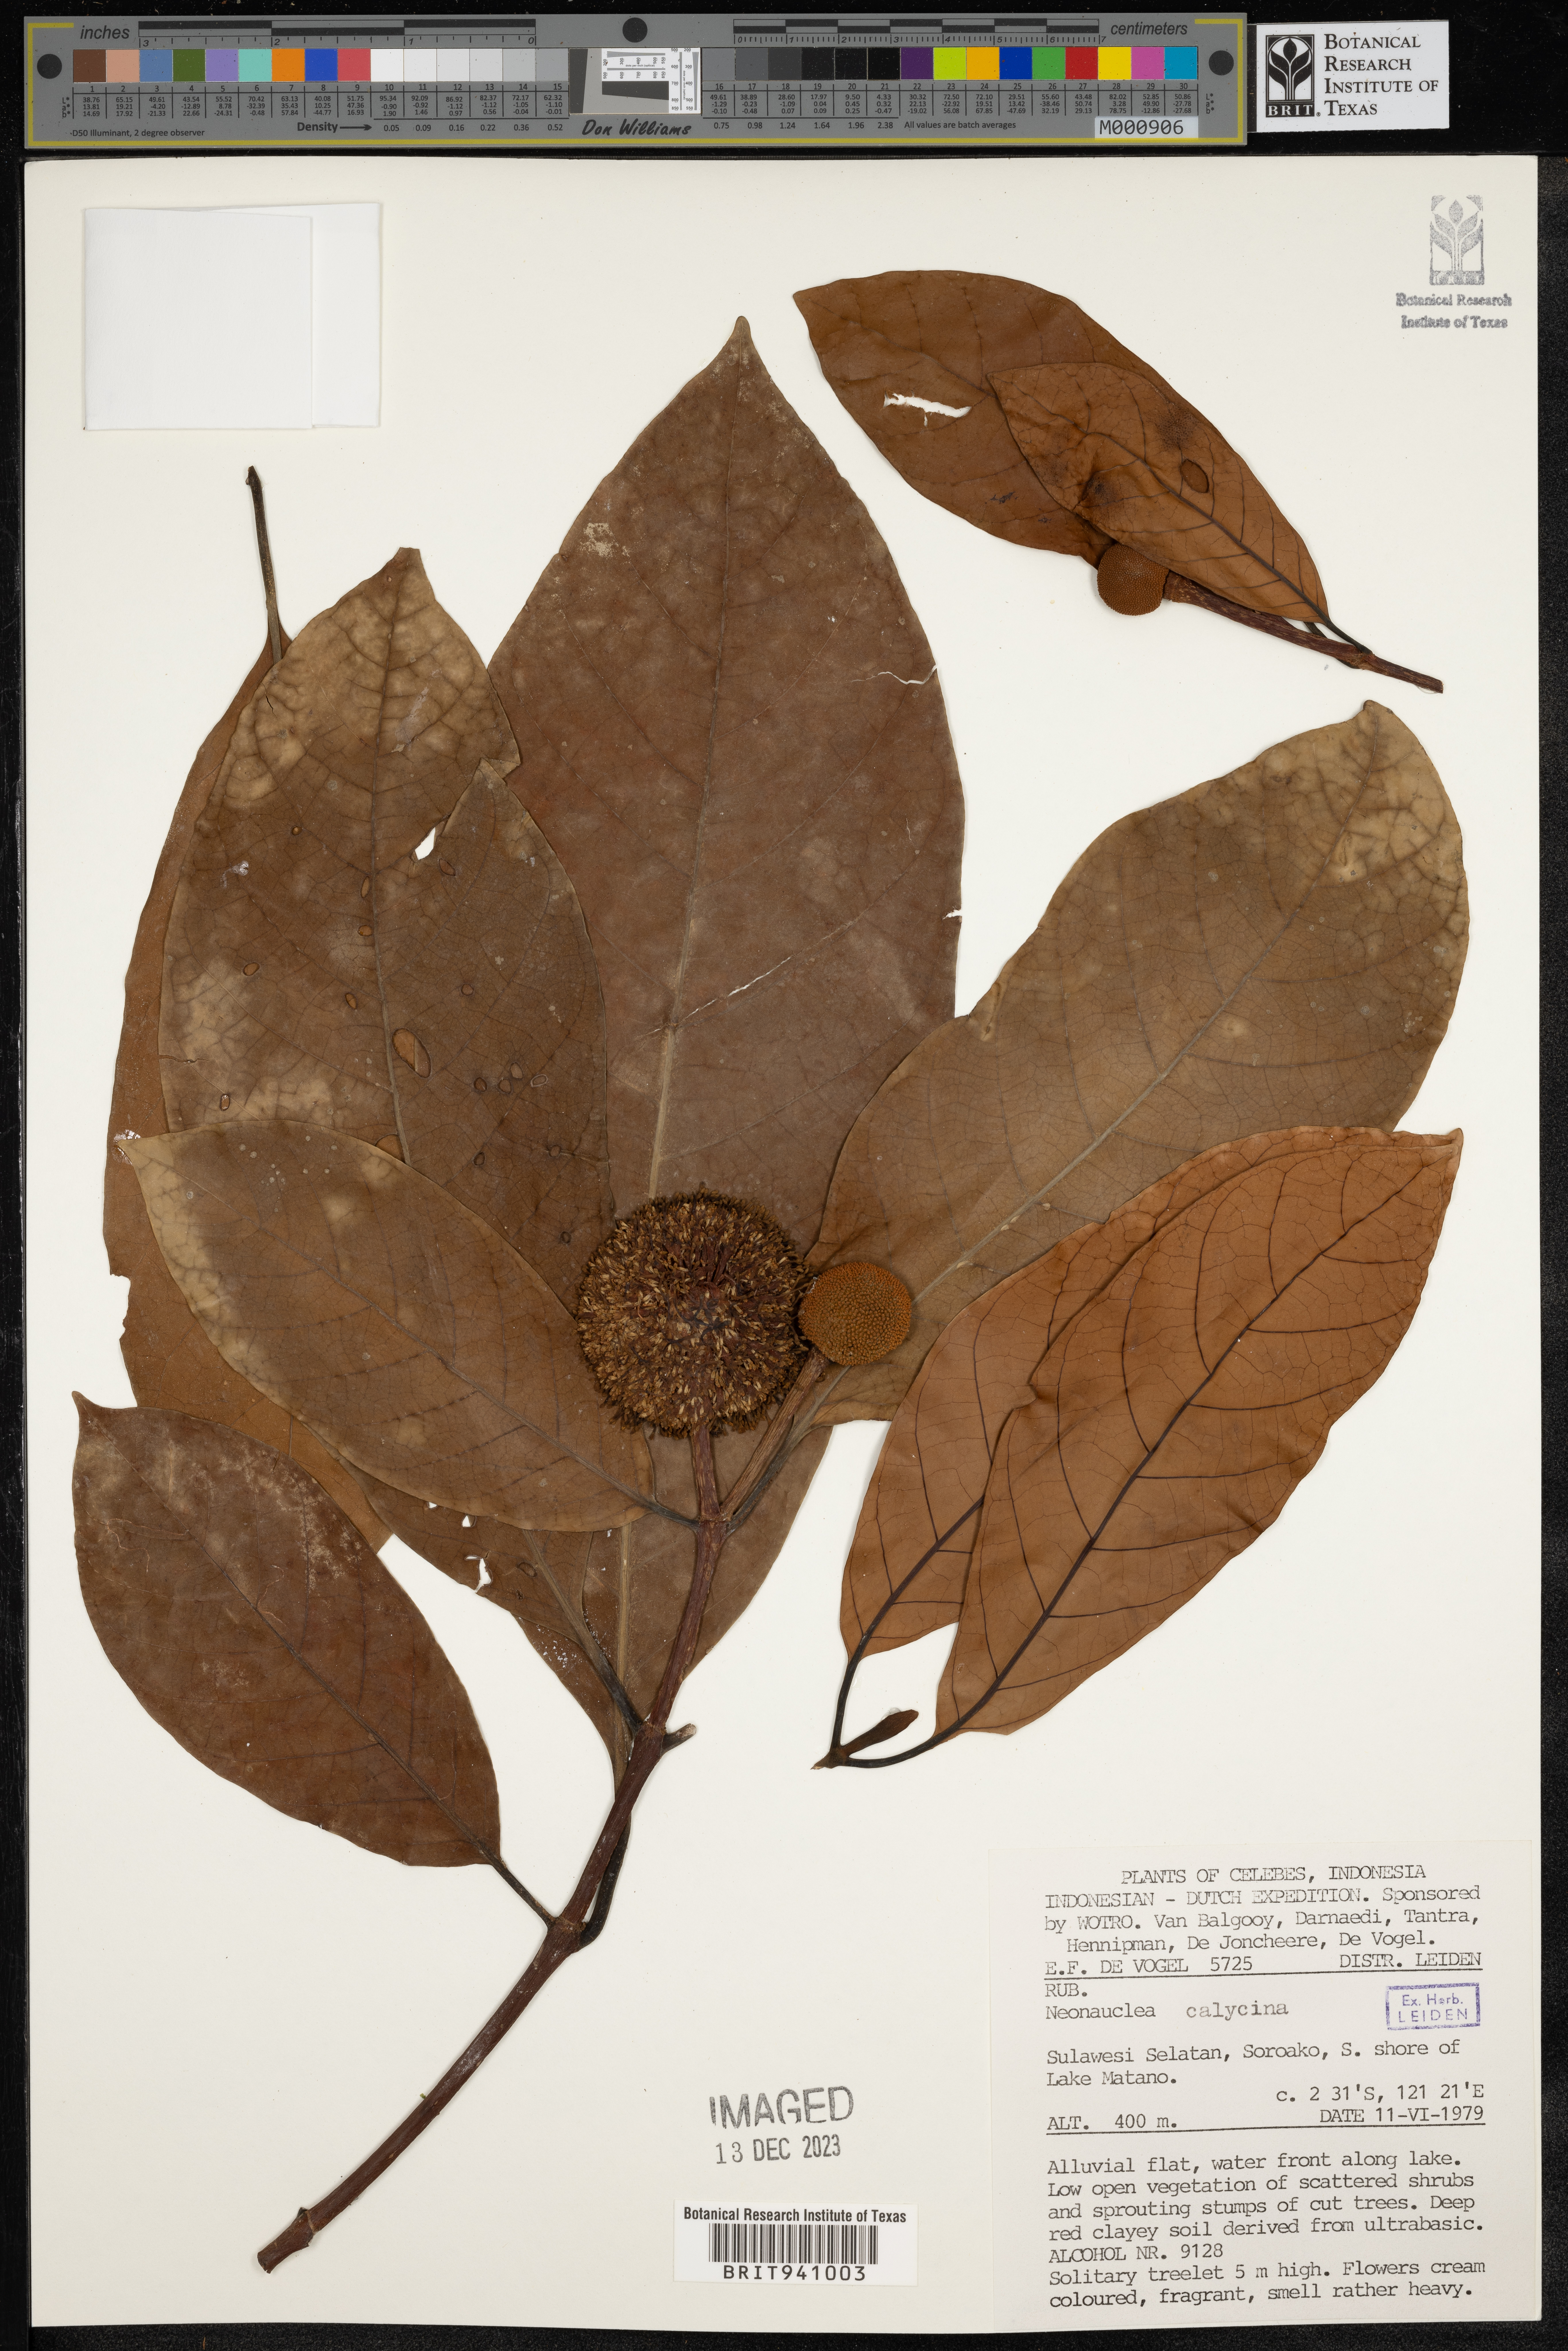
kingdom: Plantae
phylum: Tracheophyta
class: Magnoliopsida
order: Gentianales
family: Rubiaceae
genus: Neonauclea
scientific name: Neonauclea
